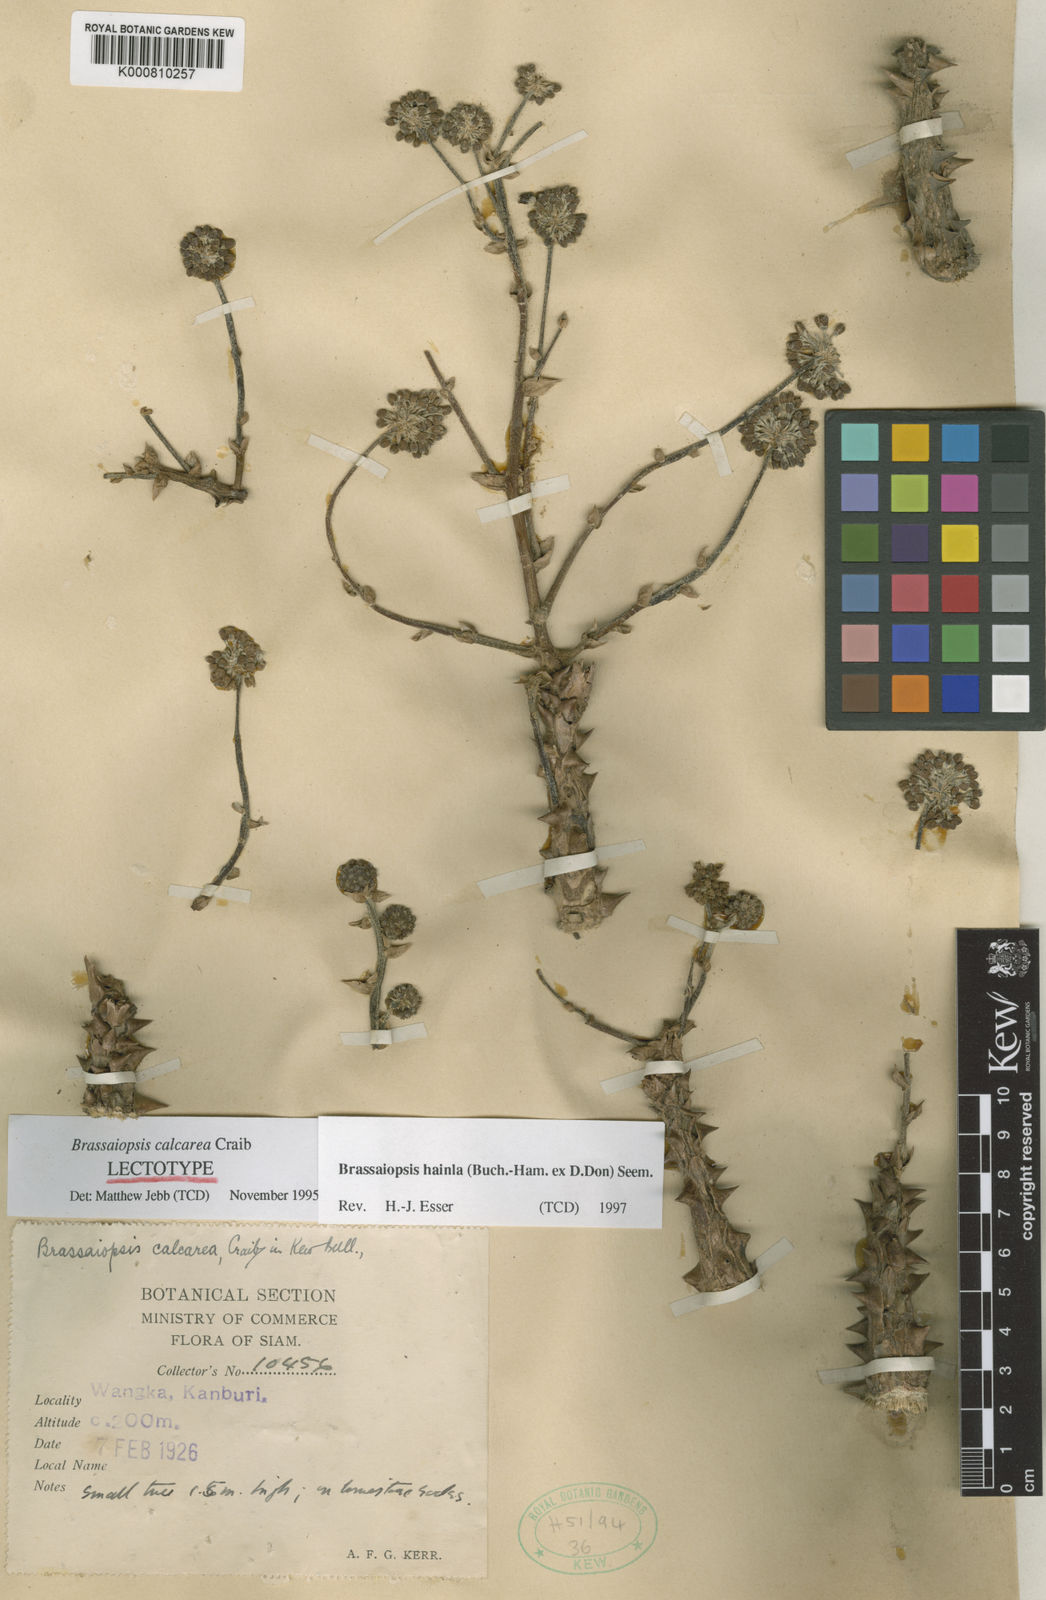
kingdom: Plantae
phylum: Tracheophyta
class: Magnoliopsida
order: Apiales
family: Araliaceae
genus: Brassaiopsis
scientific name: Brassaiopsis hainla
